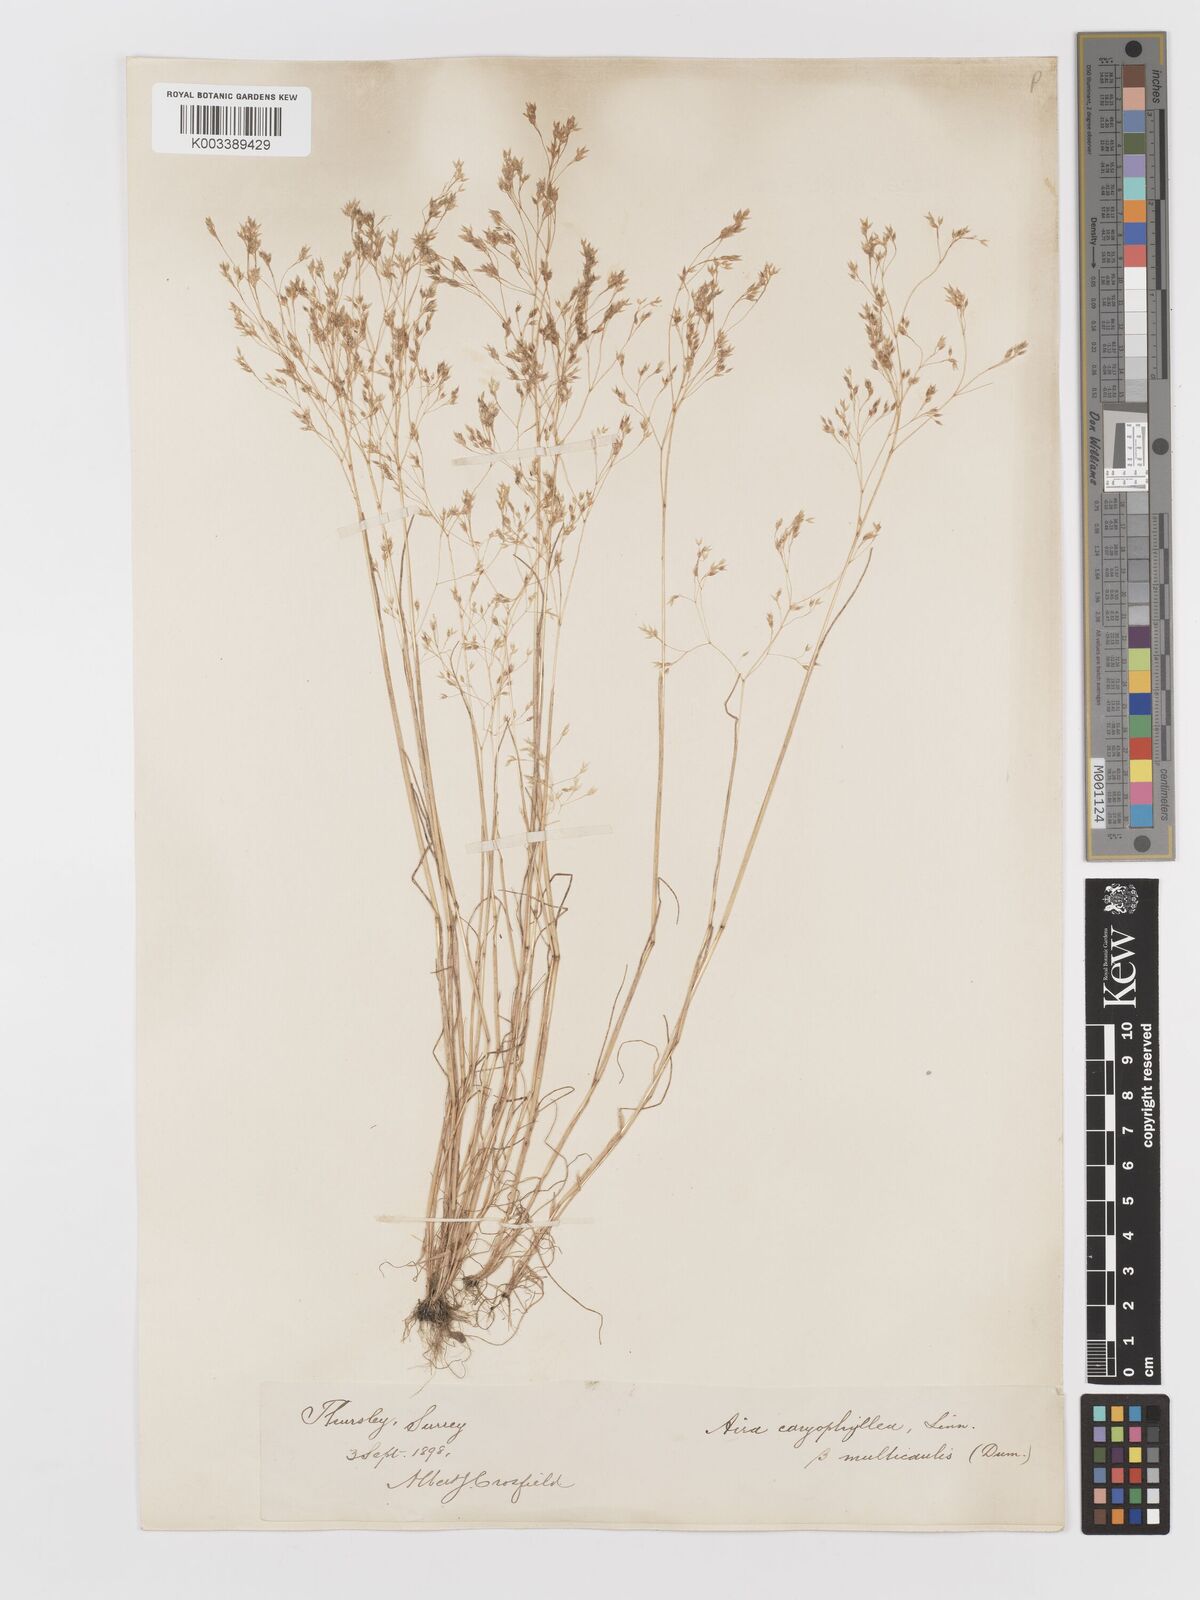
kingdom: Plantae
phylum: Tracheophyta
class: Liliopsida
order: Poales
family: Poaceae
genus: Aira
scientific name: Aira caryophyllea
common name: Silver hairgrass
